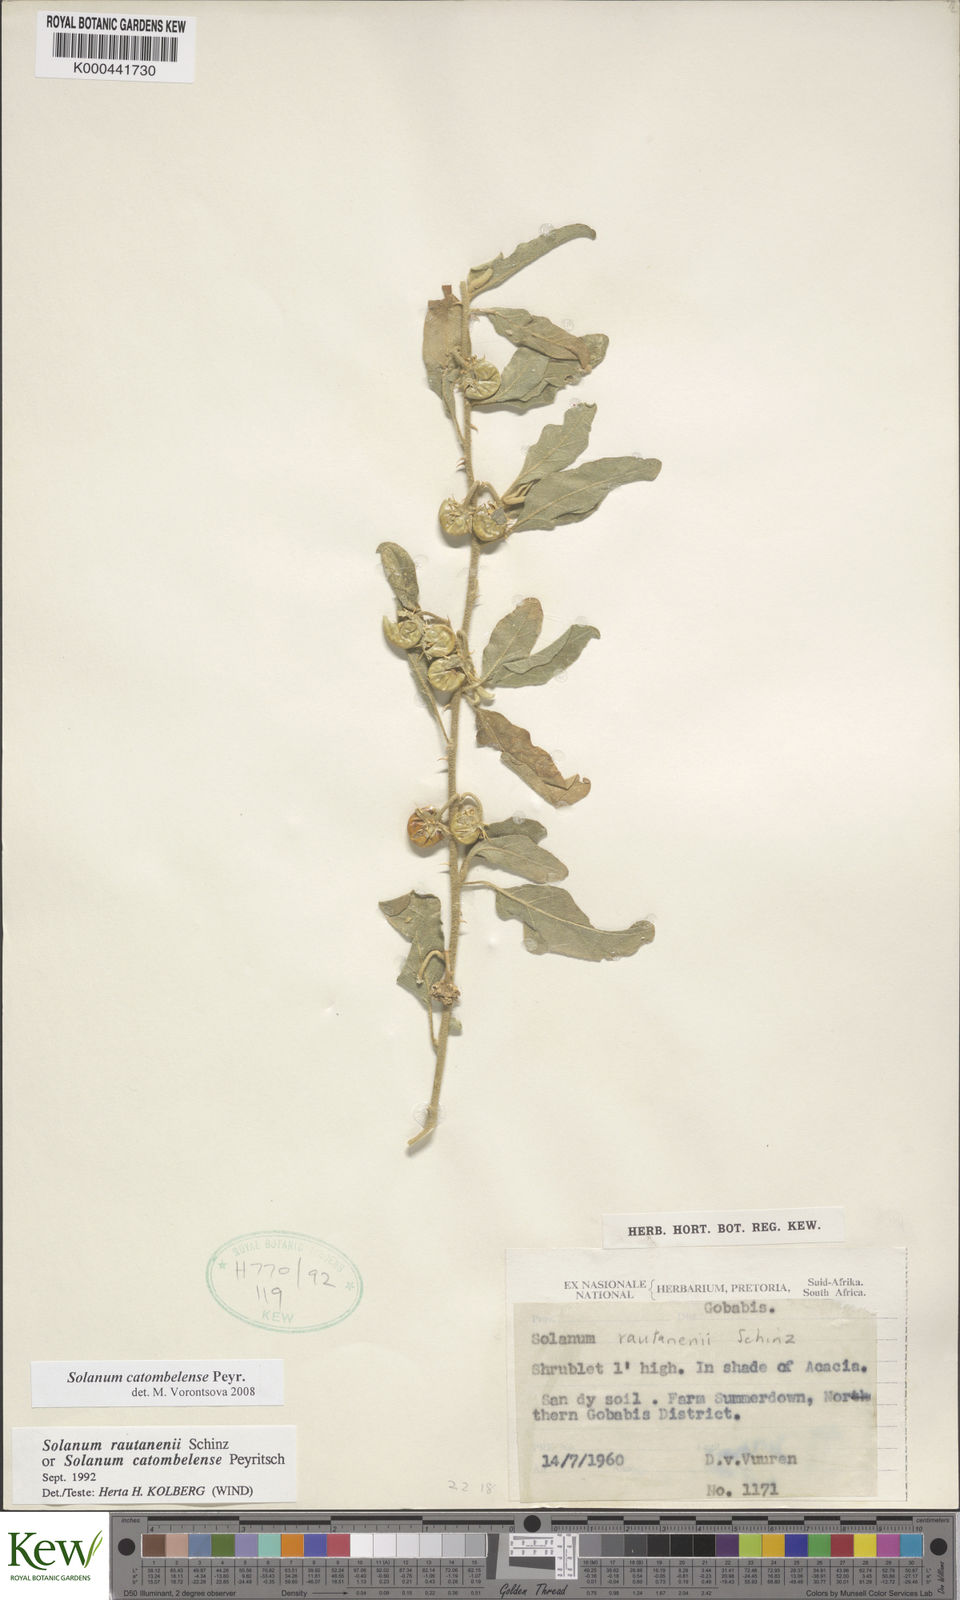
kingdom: Plantae
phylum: Tracheophyta
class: Magnoliopsida
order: Solanales
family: Solanaceae
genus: Solanum
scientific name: Solanum catombelense
